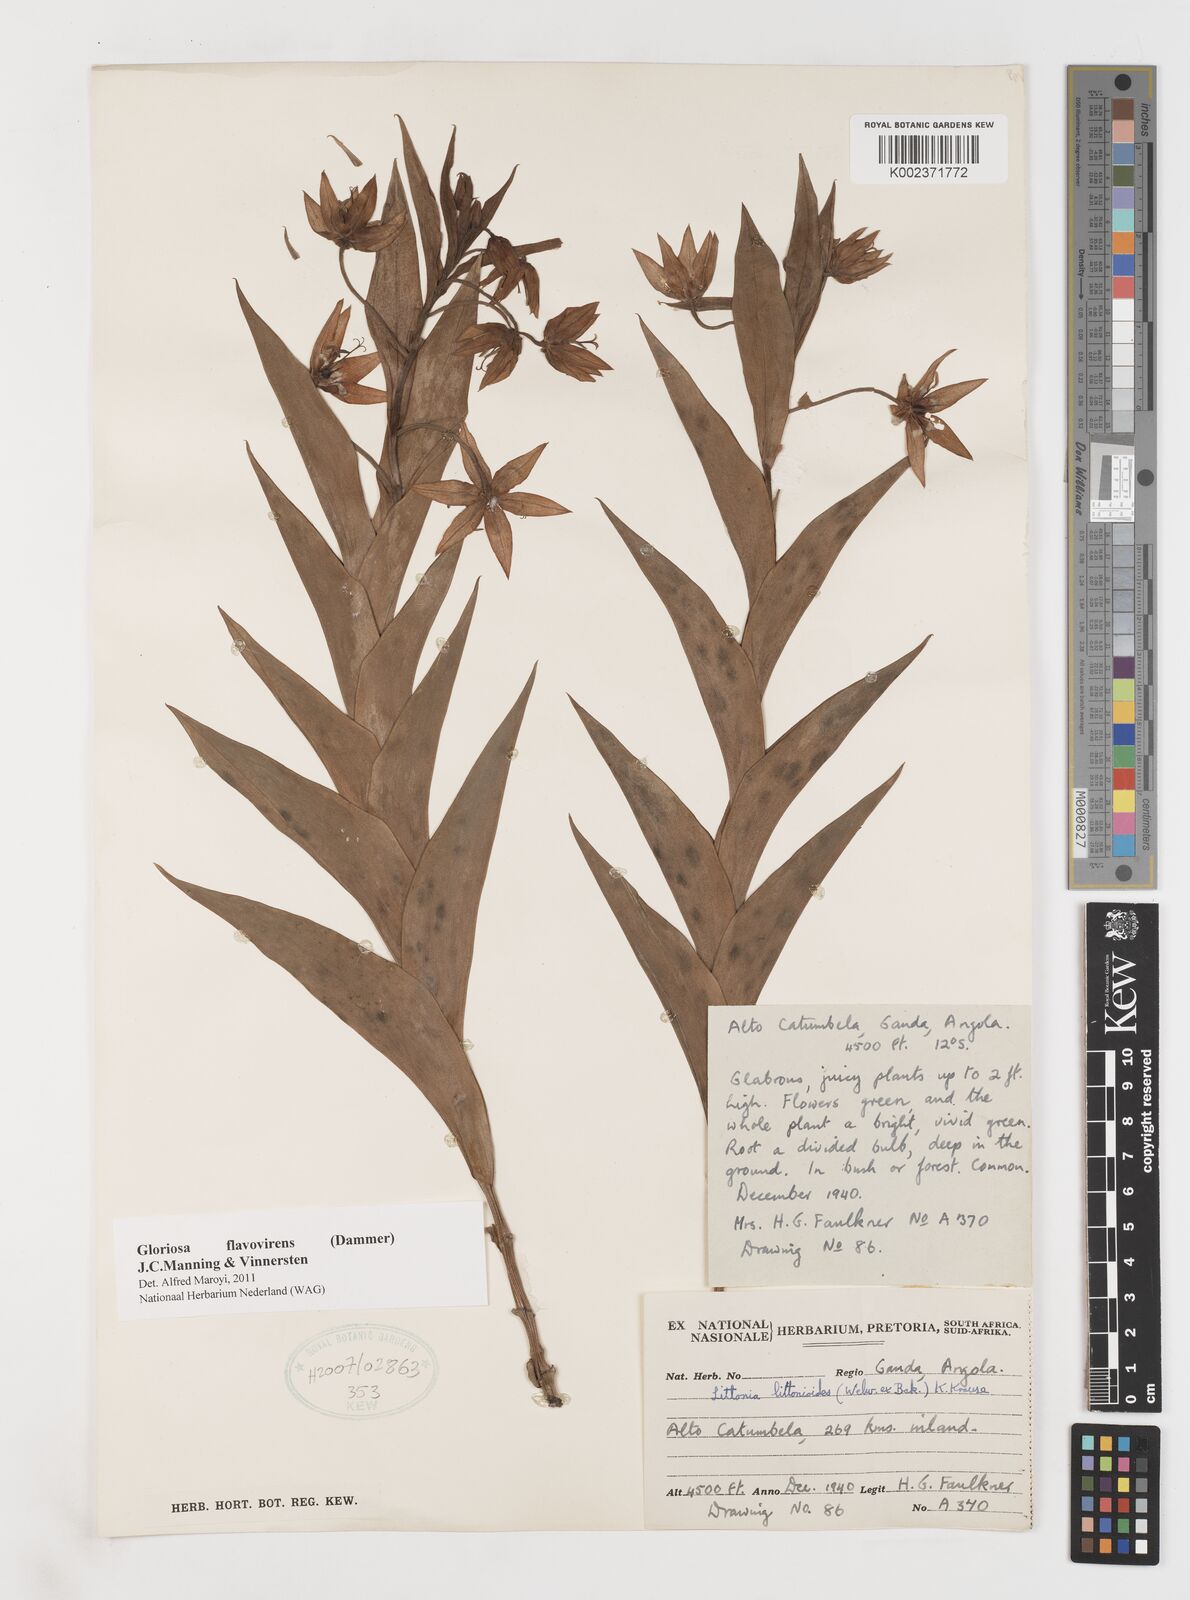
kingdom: Plantae
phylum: Tracheophyta
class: Liliopsida
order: Liliales
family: Colchicaceae
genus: Gloriosa
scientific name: Gloriosa flavovirens
